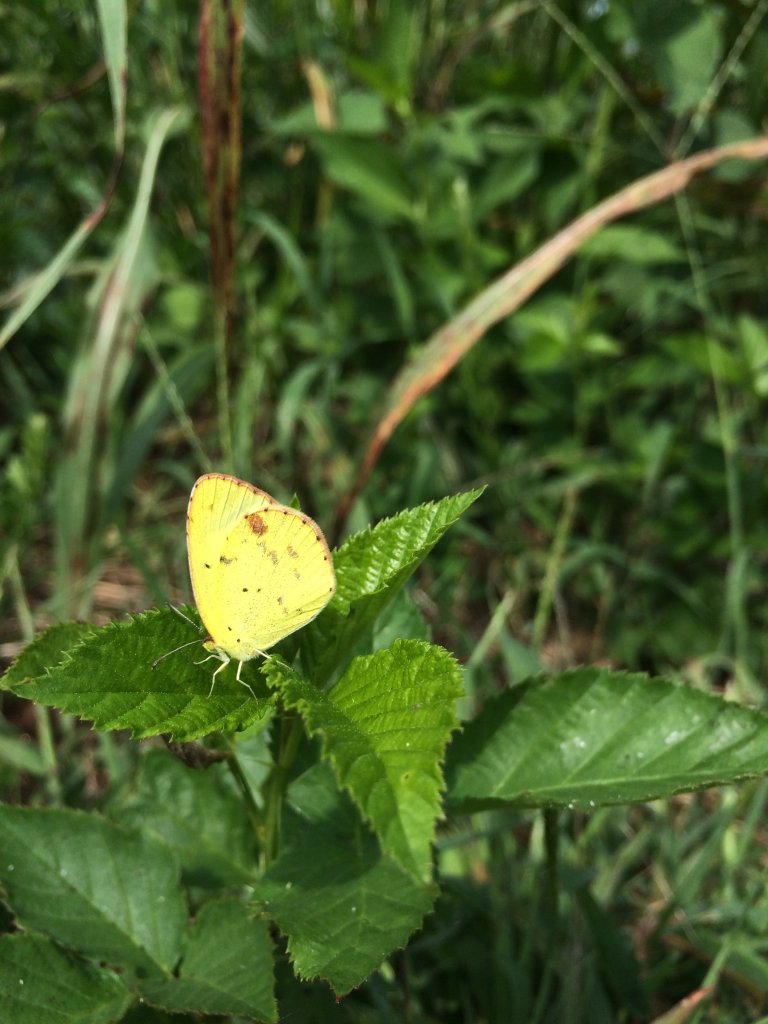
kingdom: Animalia
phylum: Arthropoda
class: Insecta
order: Lepidoptera
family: Pieridae
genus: Pyrisitia
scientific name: Pyrisitia lisa
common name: Little Yellow
